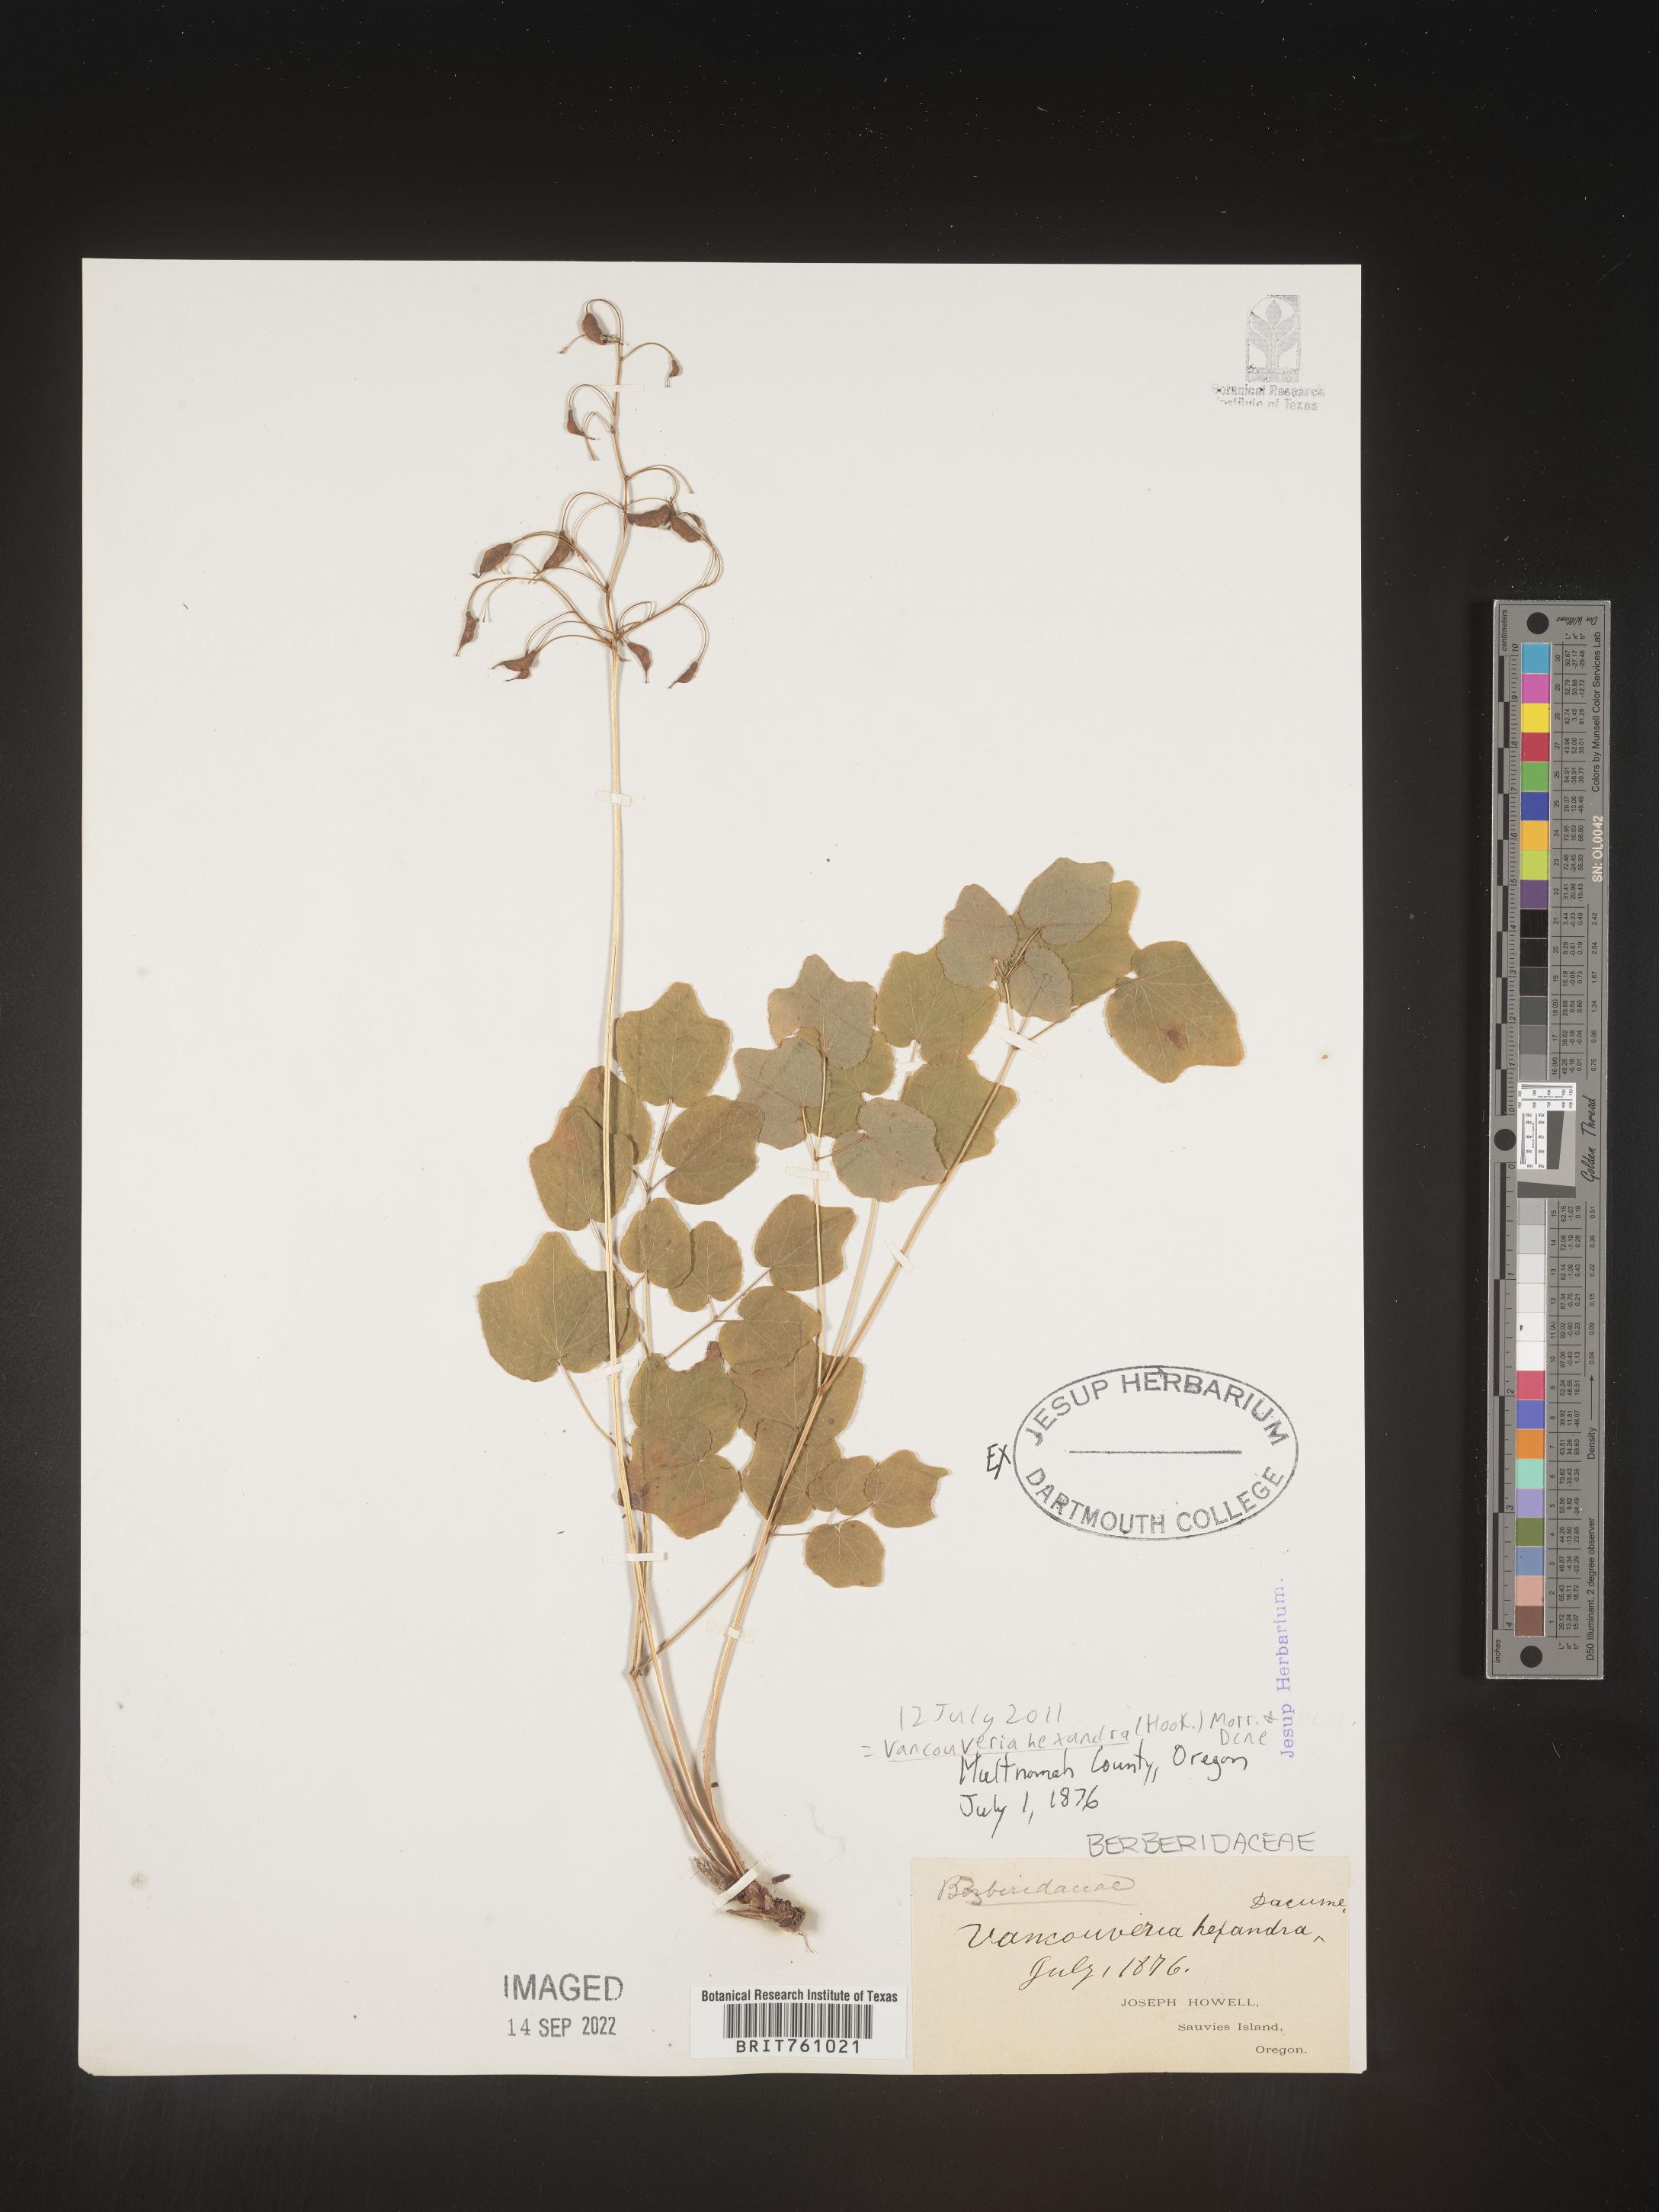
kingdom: Plantae
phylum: Tracheophyta
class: Magnoliopsida
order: Ranunculales
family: Berberidaceae
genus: Vancouveria
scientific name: Vancouveria
